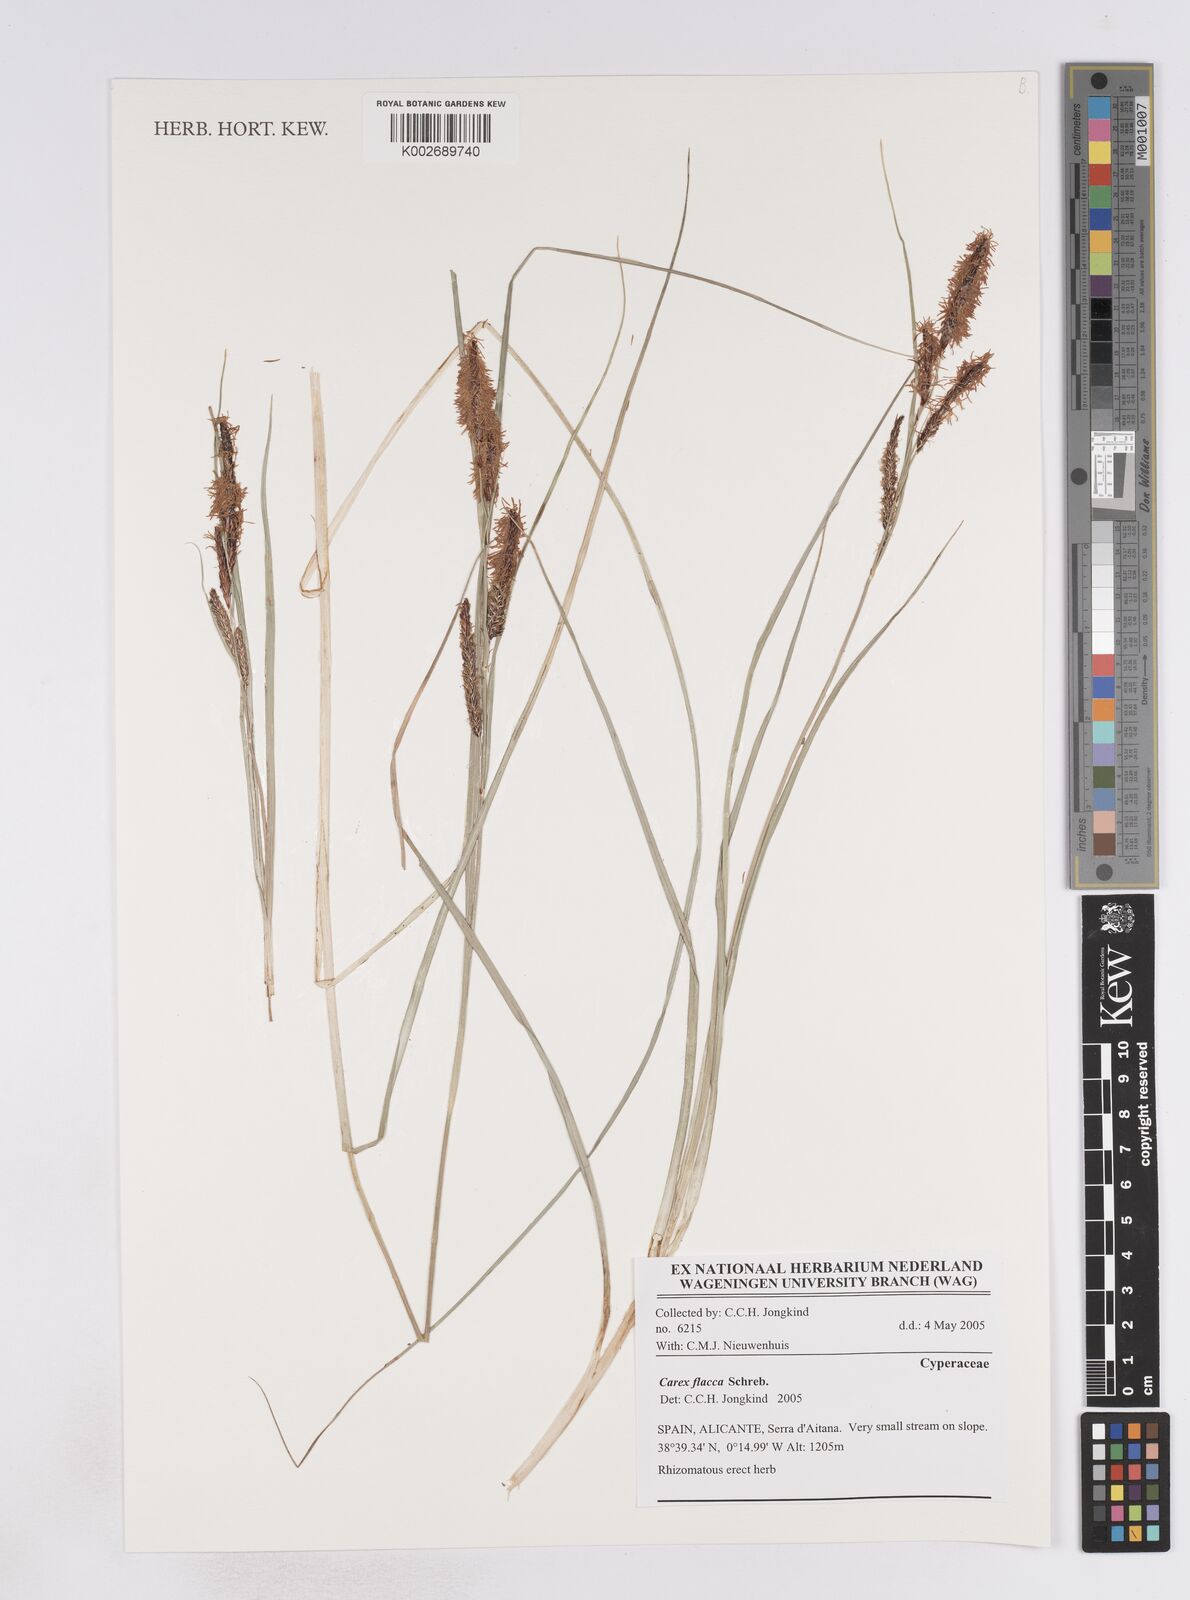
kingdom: Plantae
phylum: Tracheophyta
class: Liliopsida
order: Poales
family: Cyperaceae
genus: Carex
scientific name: Carex flacca
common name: Glaucous sedge
